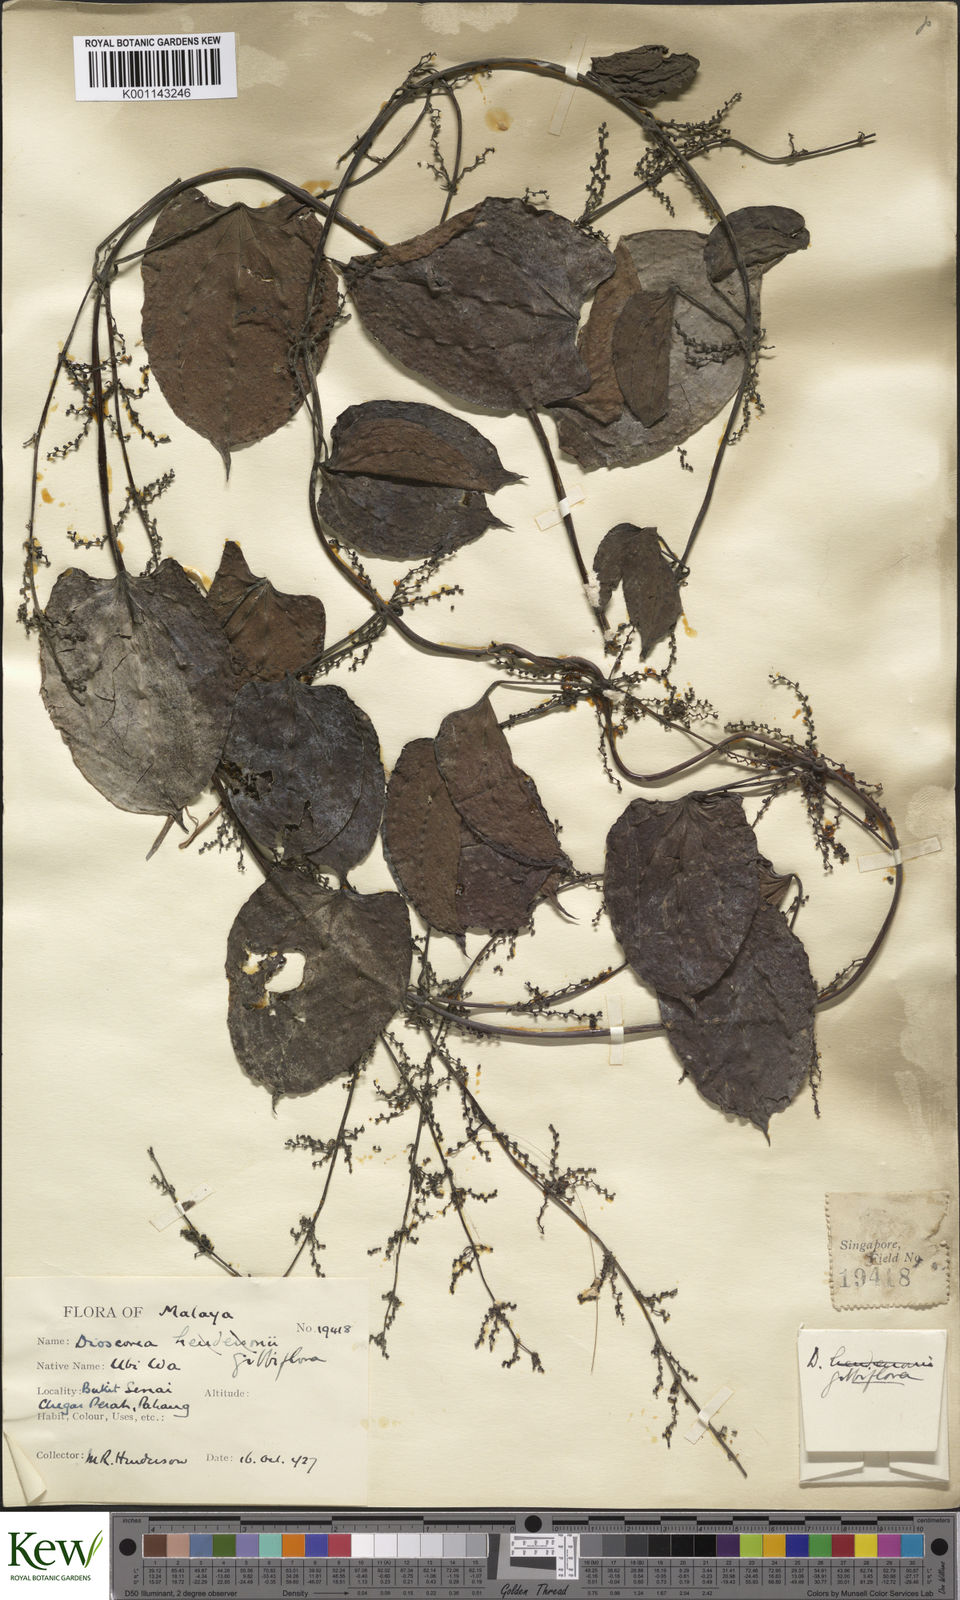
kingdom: Plantae
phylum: Tracheophyta
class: Liliopsida
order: Dioscoreales
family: Dioscoreaceae
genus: Dioscorea
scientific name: Dioscorea filiformis
